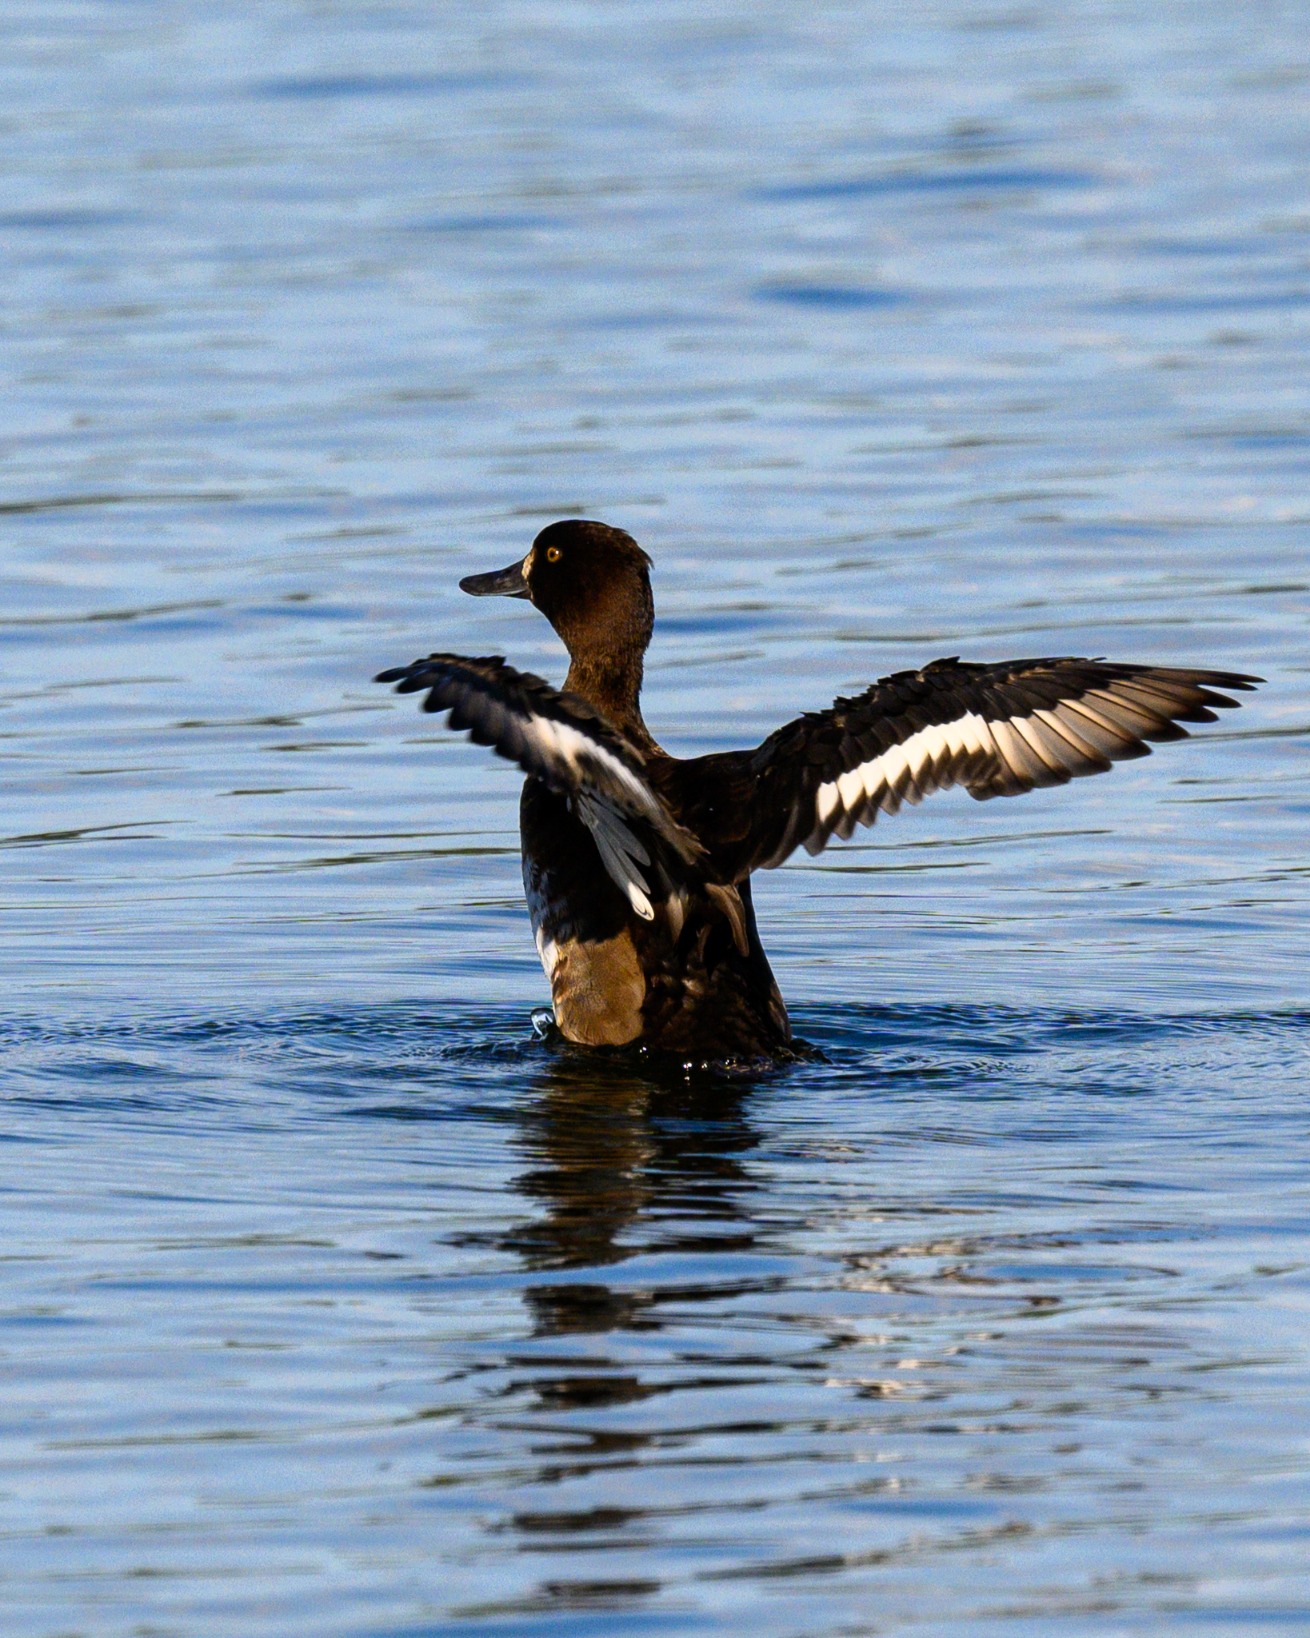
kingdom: Animalia
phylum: Chordata
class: Aves
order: Anseriformes
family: Anatidae
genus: Aythya
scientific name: Aythya fuligula
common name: Troldand
